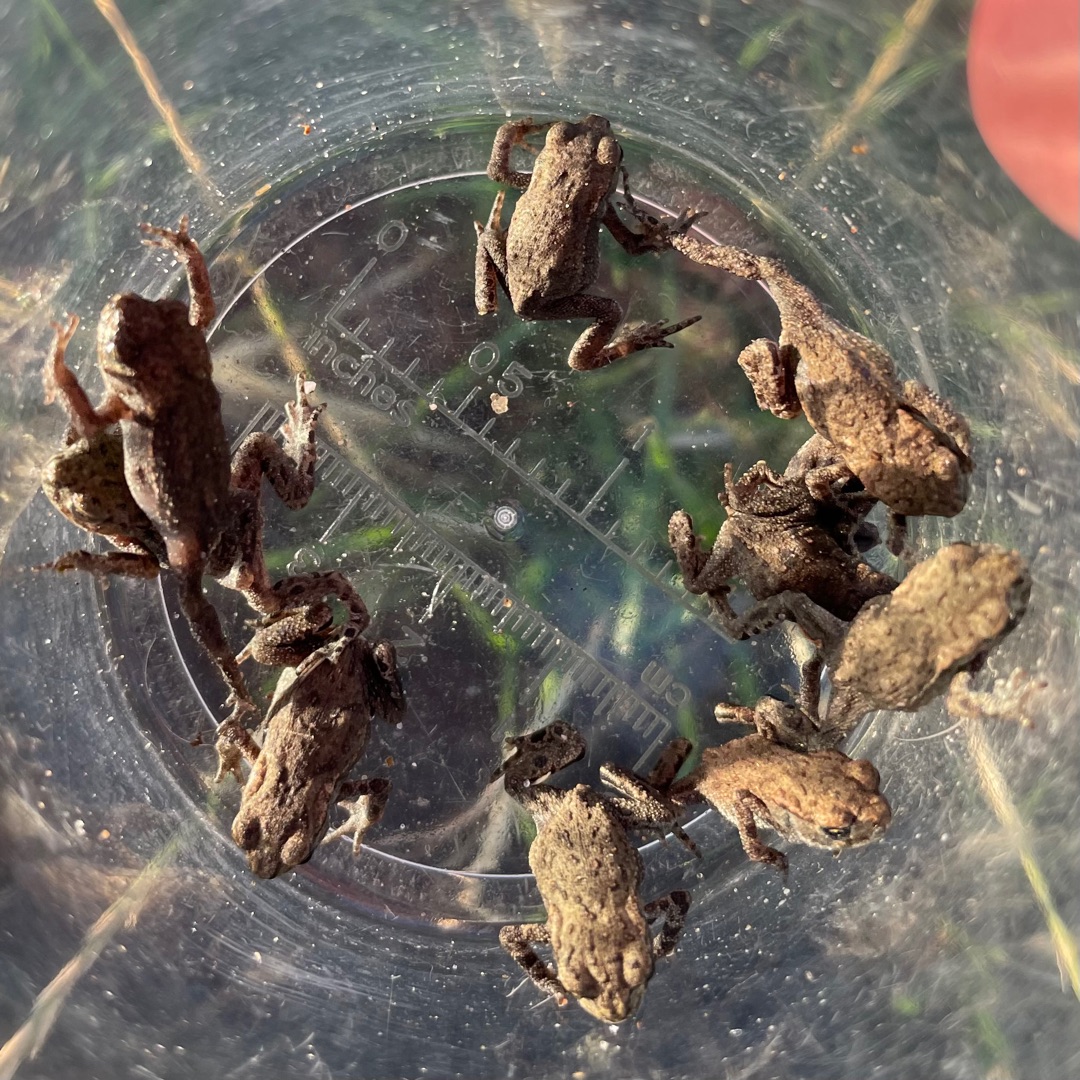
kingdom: Animalia
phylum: Chordata
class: Amphibia
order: Anura
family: Bufonidae
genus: Bufo
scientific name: Bufo bufo
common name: Skrubtudse
